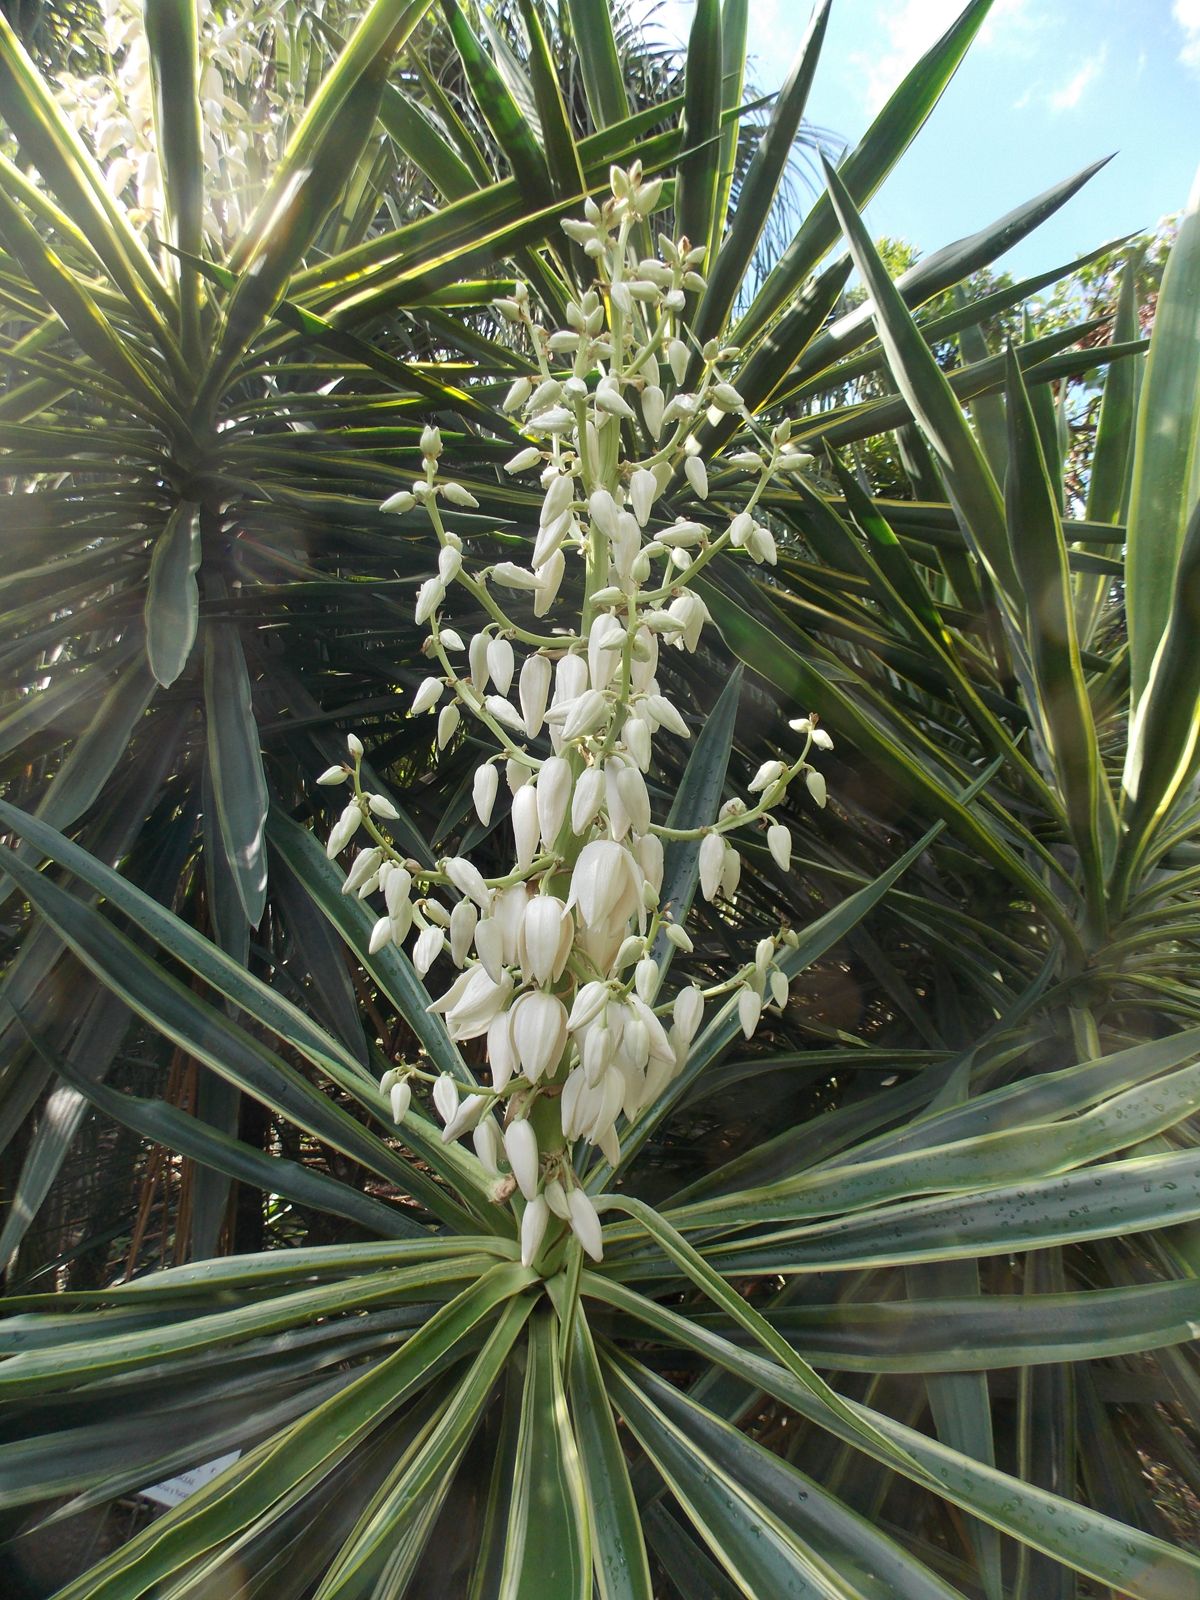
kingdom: Plantae
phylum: Tracheophyta
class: Liliopsida
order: Asparagales
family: Asparagaceae
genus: Yucca
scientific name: Yucca aloifolia
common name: Aloe yucca
